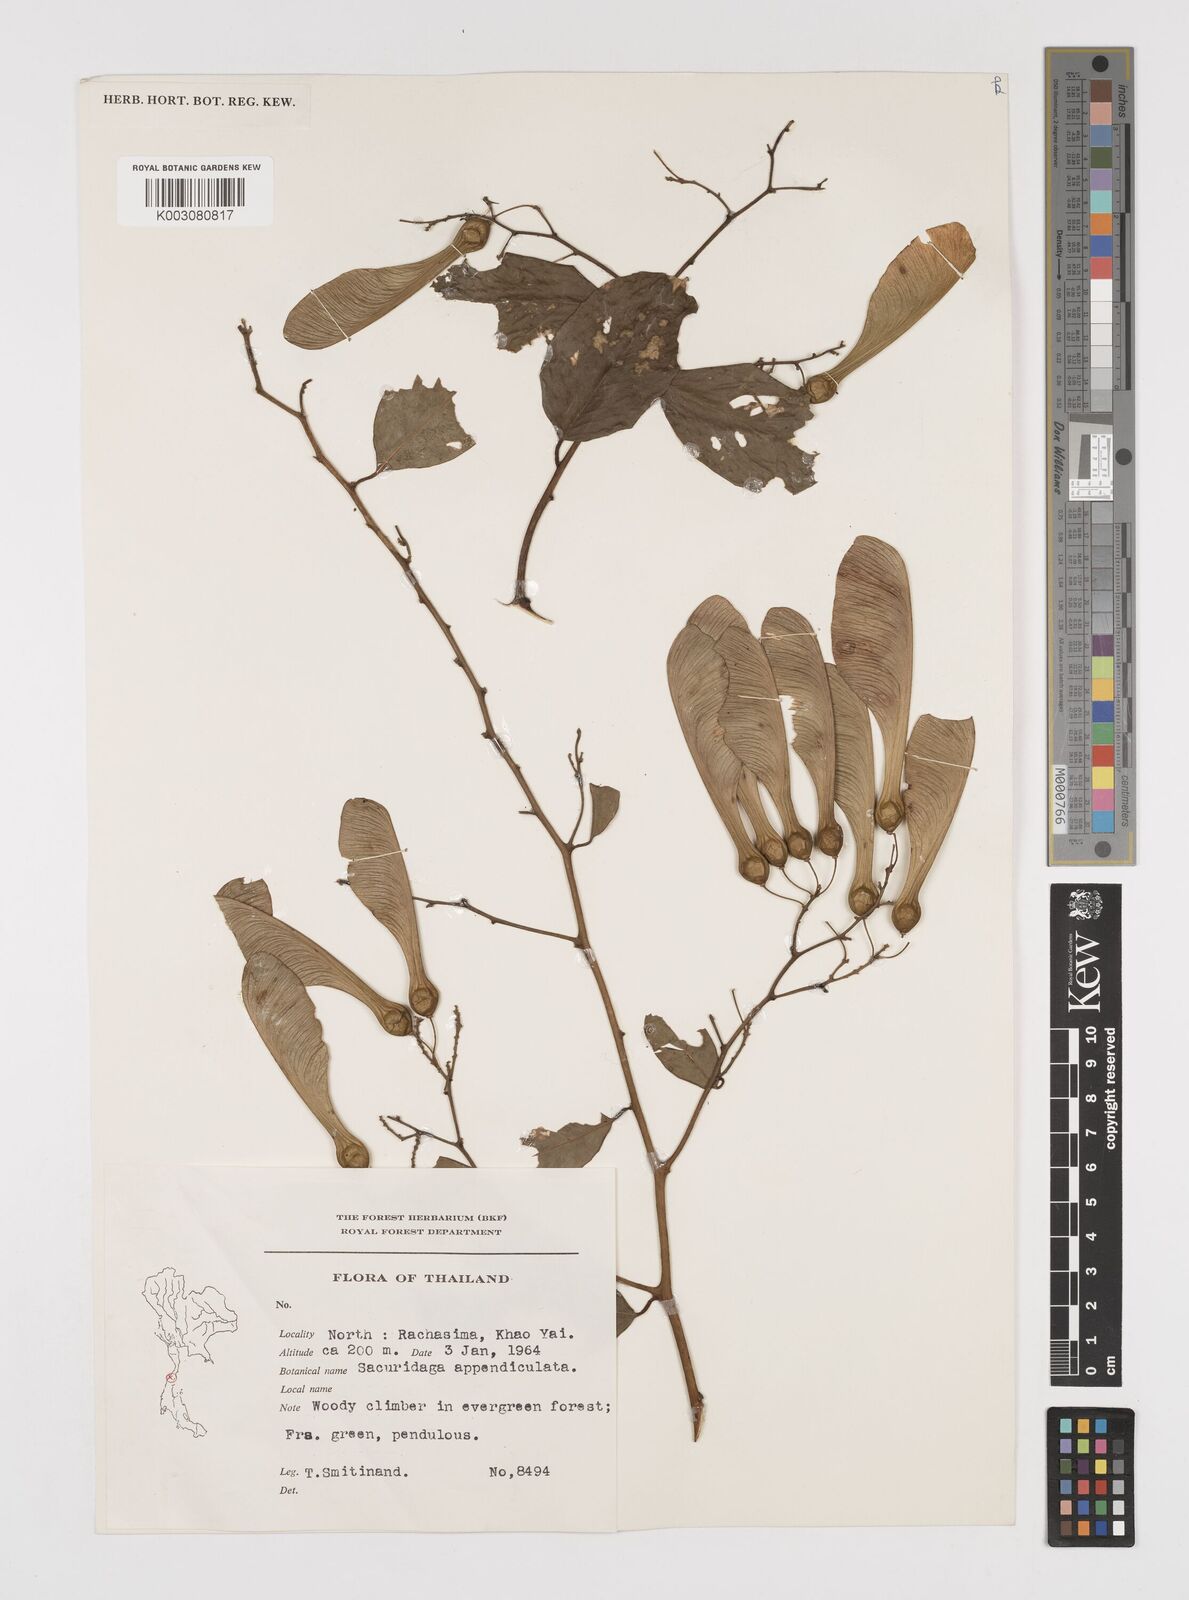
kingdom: Plantae
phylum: Tracheophyta
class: Magnoliopsida
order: Fabales
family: Polygalaceae
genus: Securidaca
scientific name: Securidaca inappendiculata
